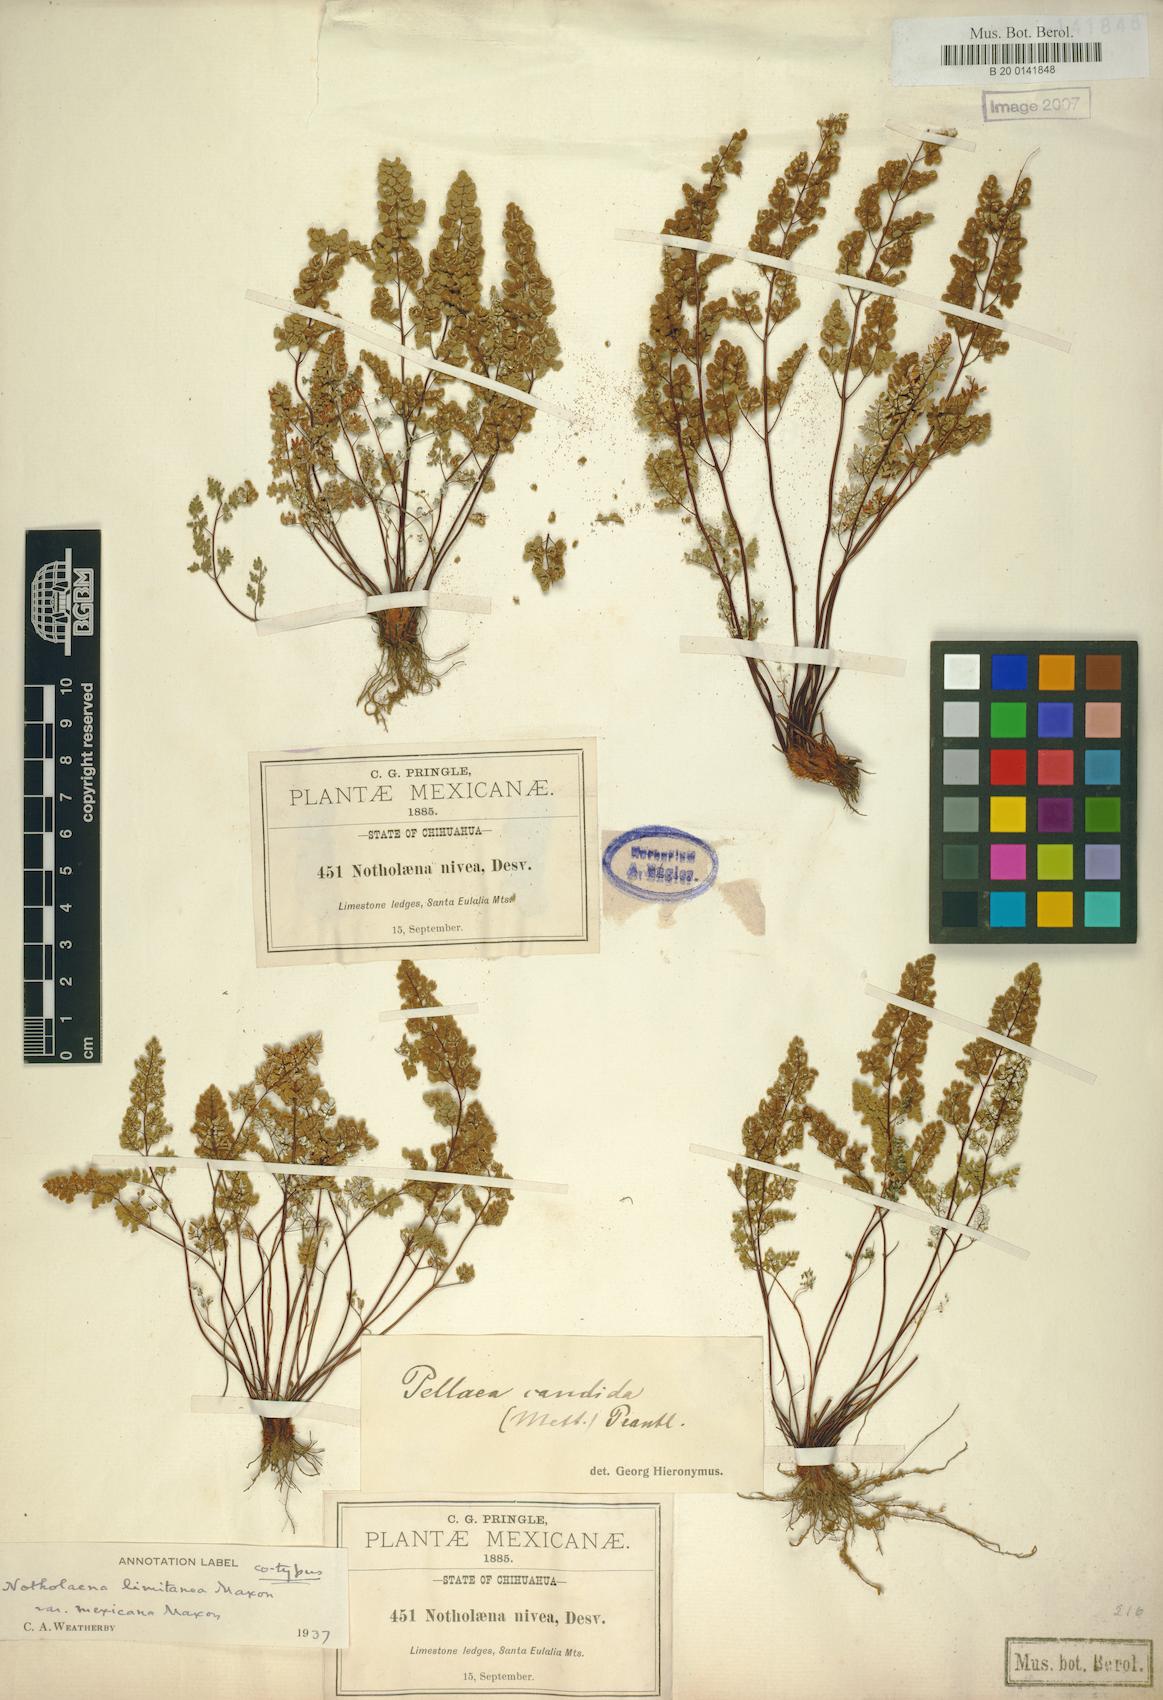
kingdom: Plantae
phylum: Tracheophyta
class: Polypodiopsida
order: Polypodiales
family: Pteridaceae
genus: Argyrochosma
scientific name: Argyrochosma incana
